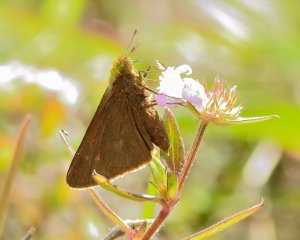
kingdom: Animalia
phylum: Arthropoda
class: Insecta
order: Lepidoptera
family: Hesperiidae
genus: Euphyes
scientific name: Euphyes pilatka
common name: Palatka Skipper
